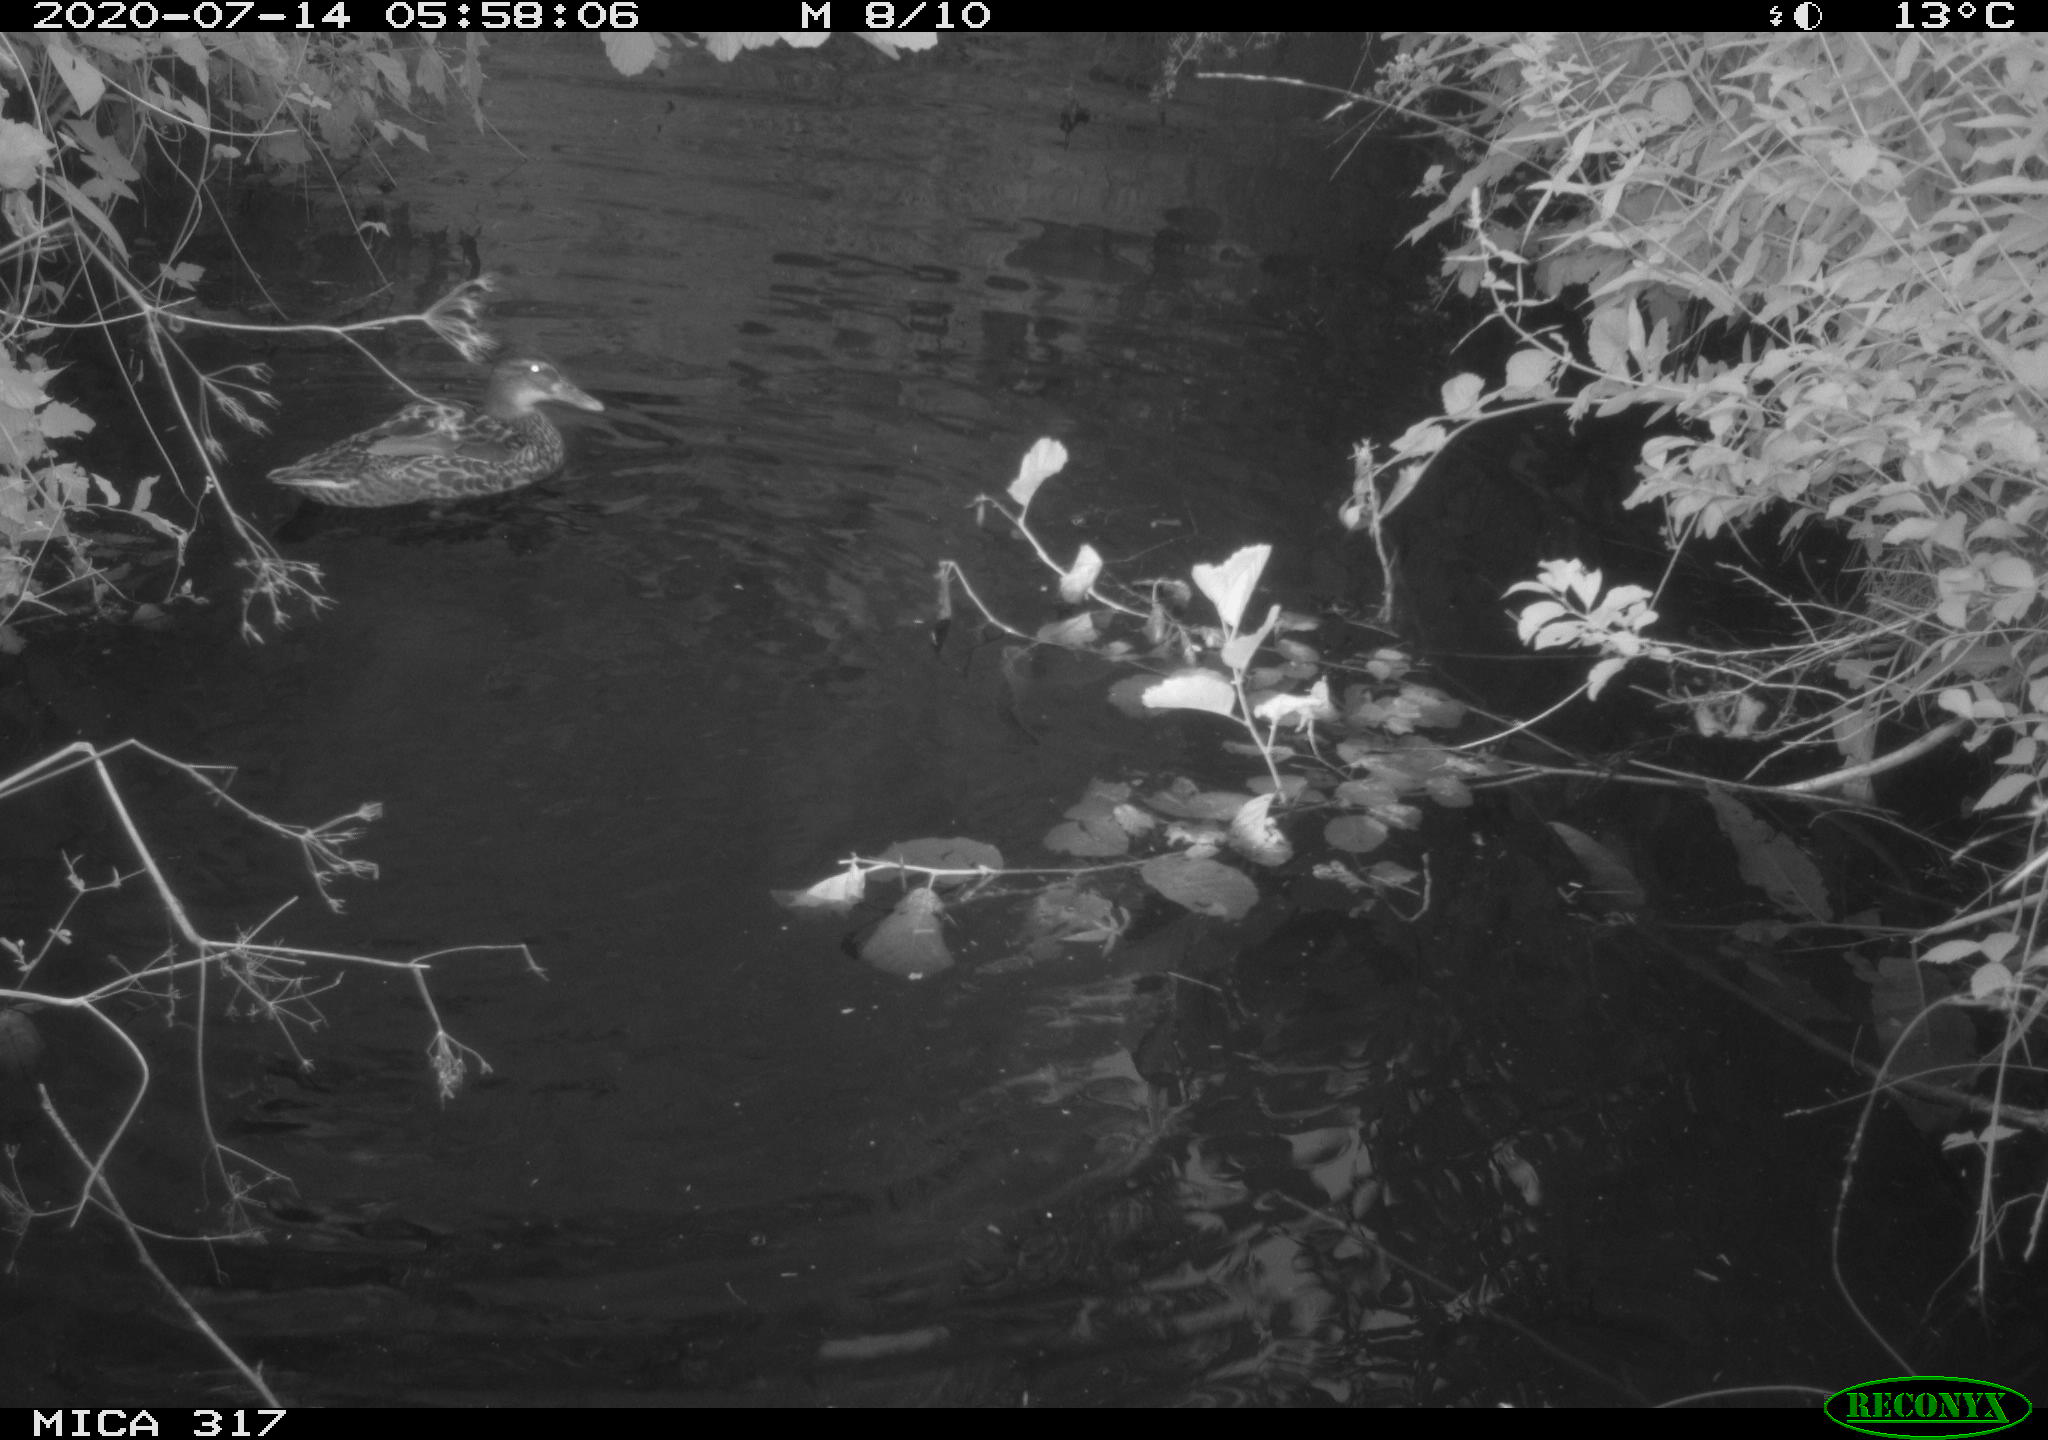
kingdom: Animalia
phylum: Chordata
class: Aves
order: Anseriformes
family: Anatidae
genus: Anas
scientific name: Anas platyrhynchos
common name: Mallard
